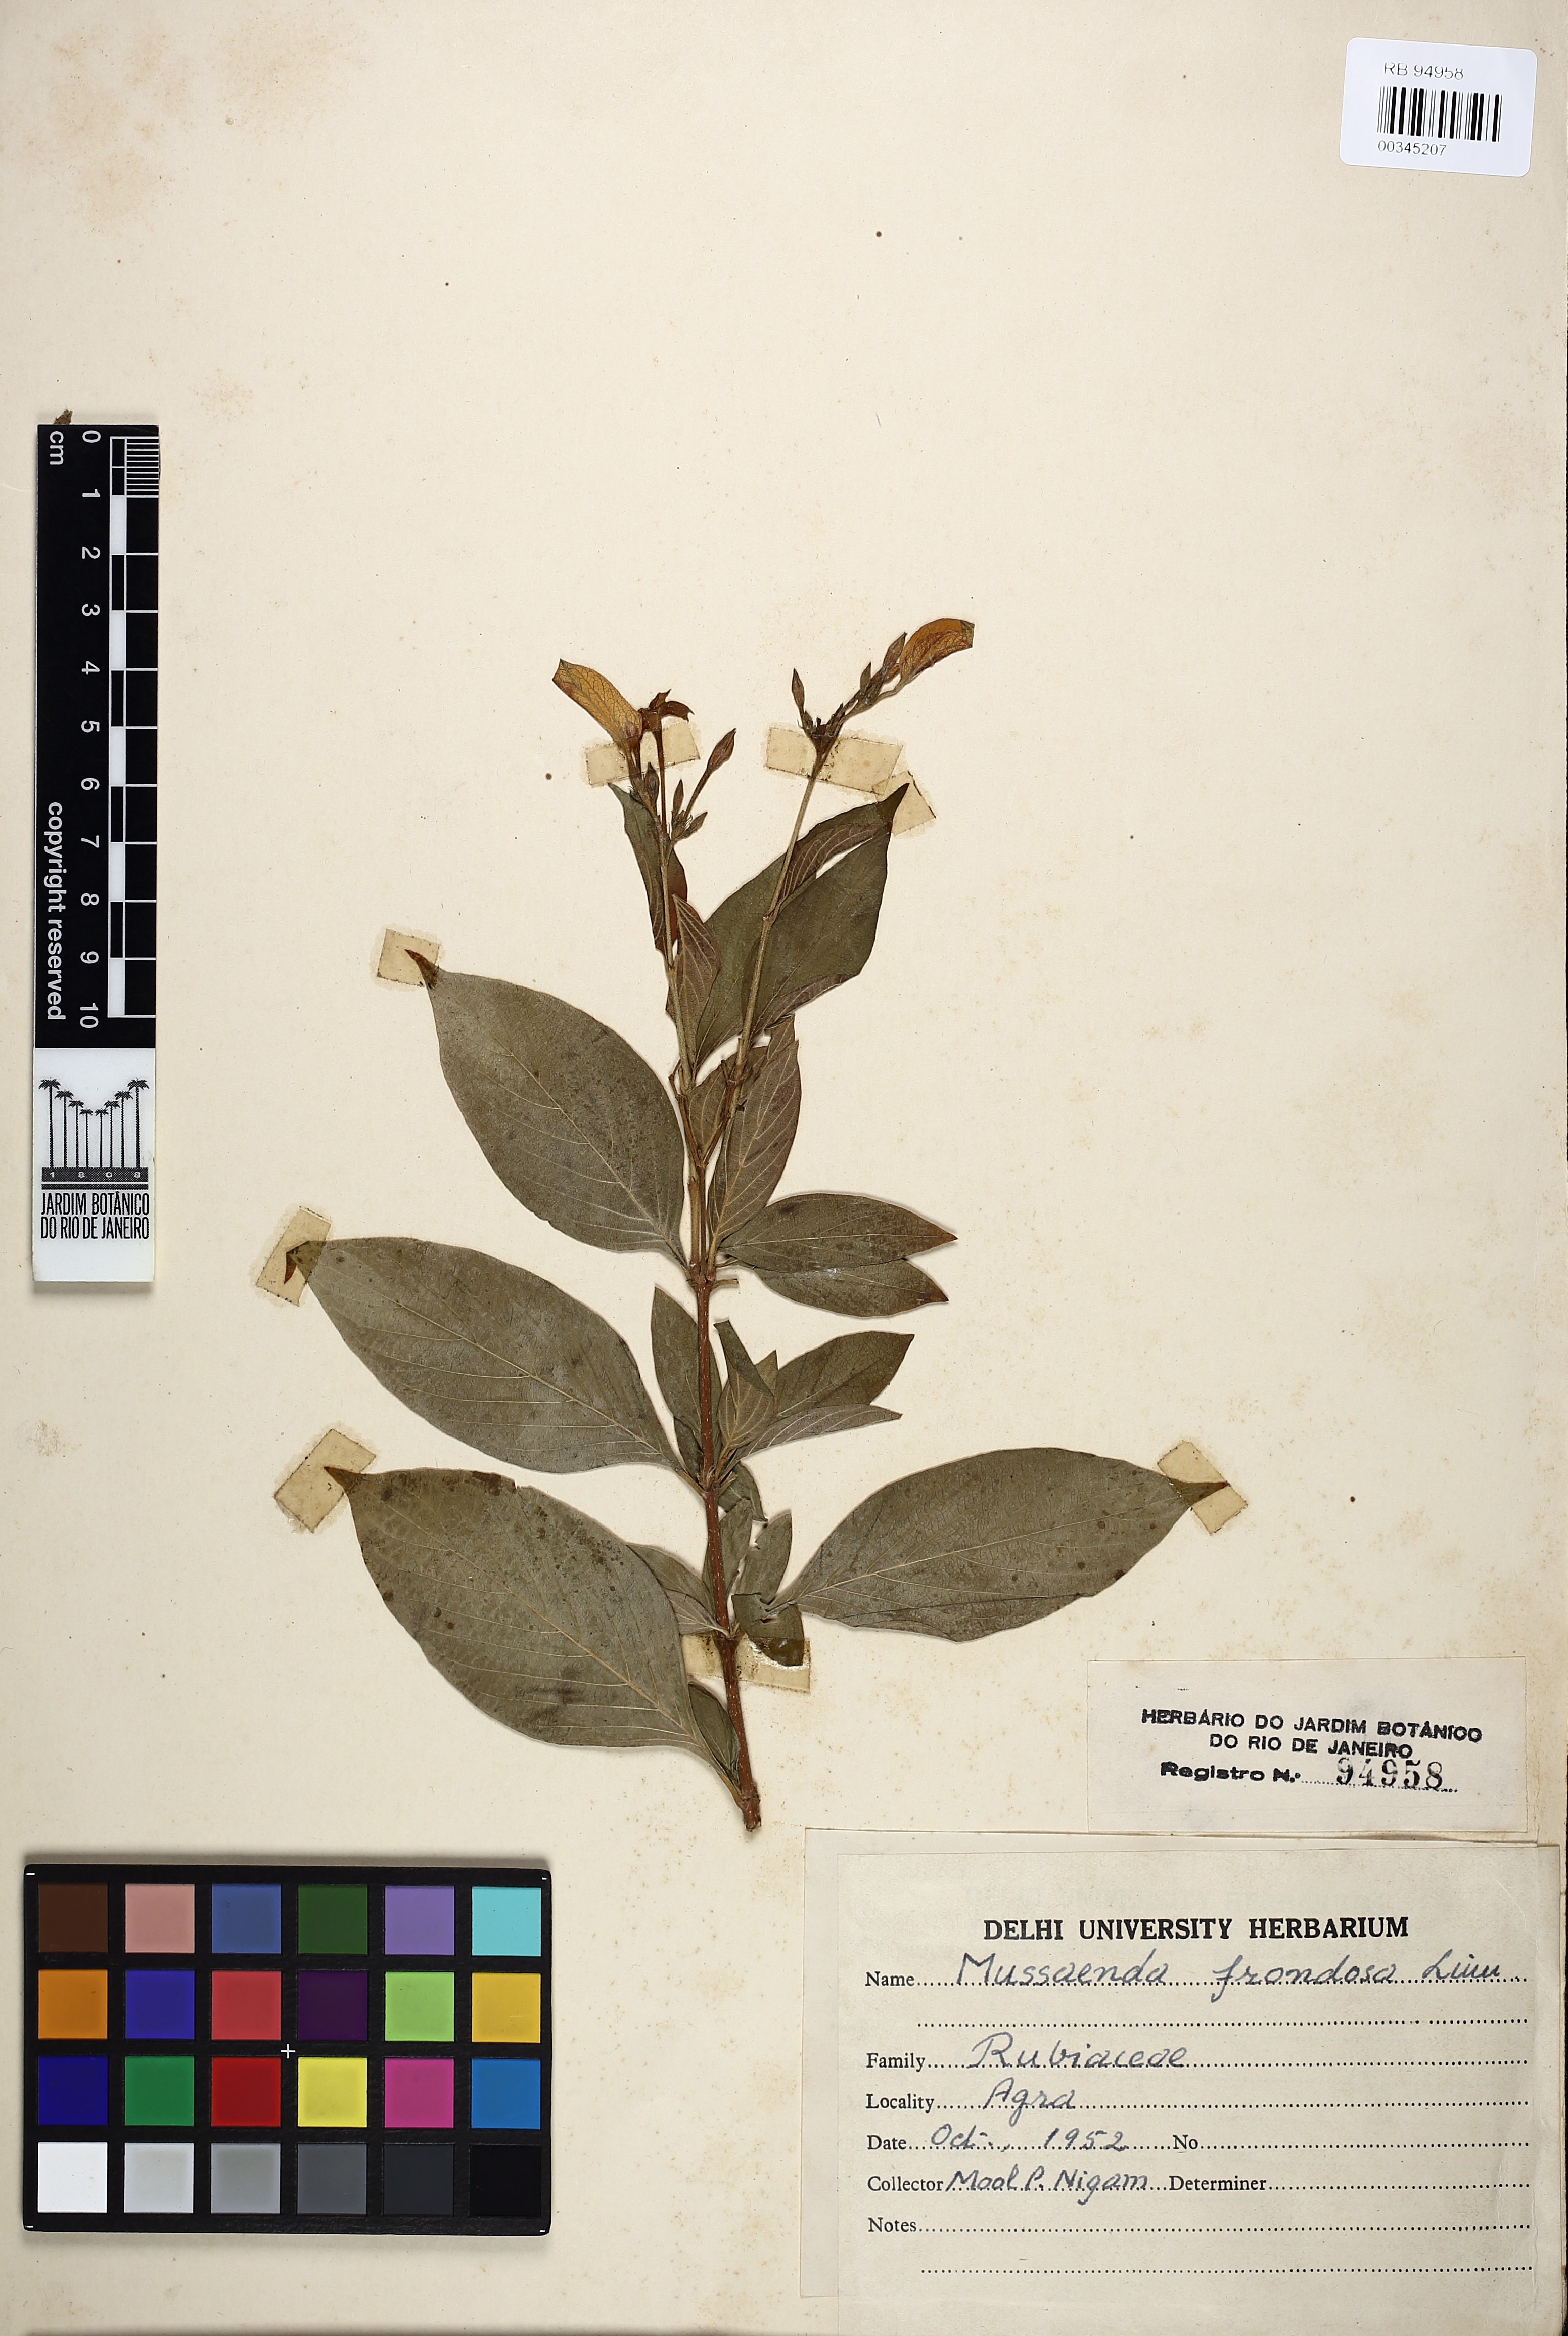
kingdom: Plantae
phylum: Tracheophyta
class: Magnoliopsida
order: Gentianales
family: Rubiaceae
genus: Mussaenda
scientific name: Mussaenda frondosa
